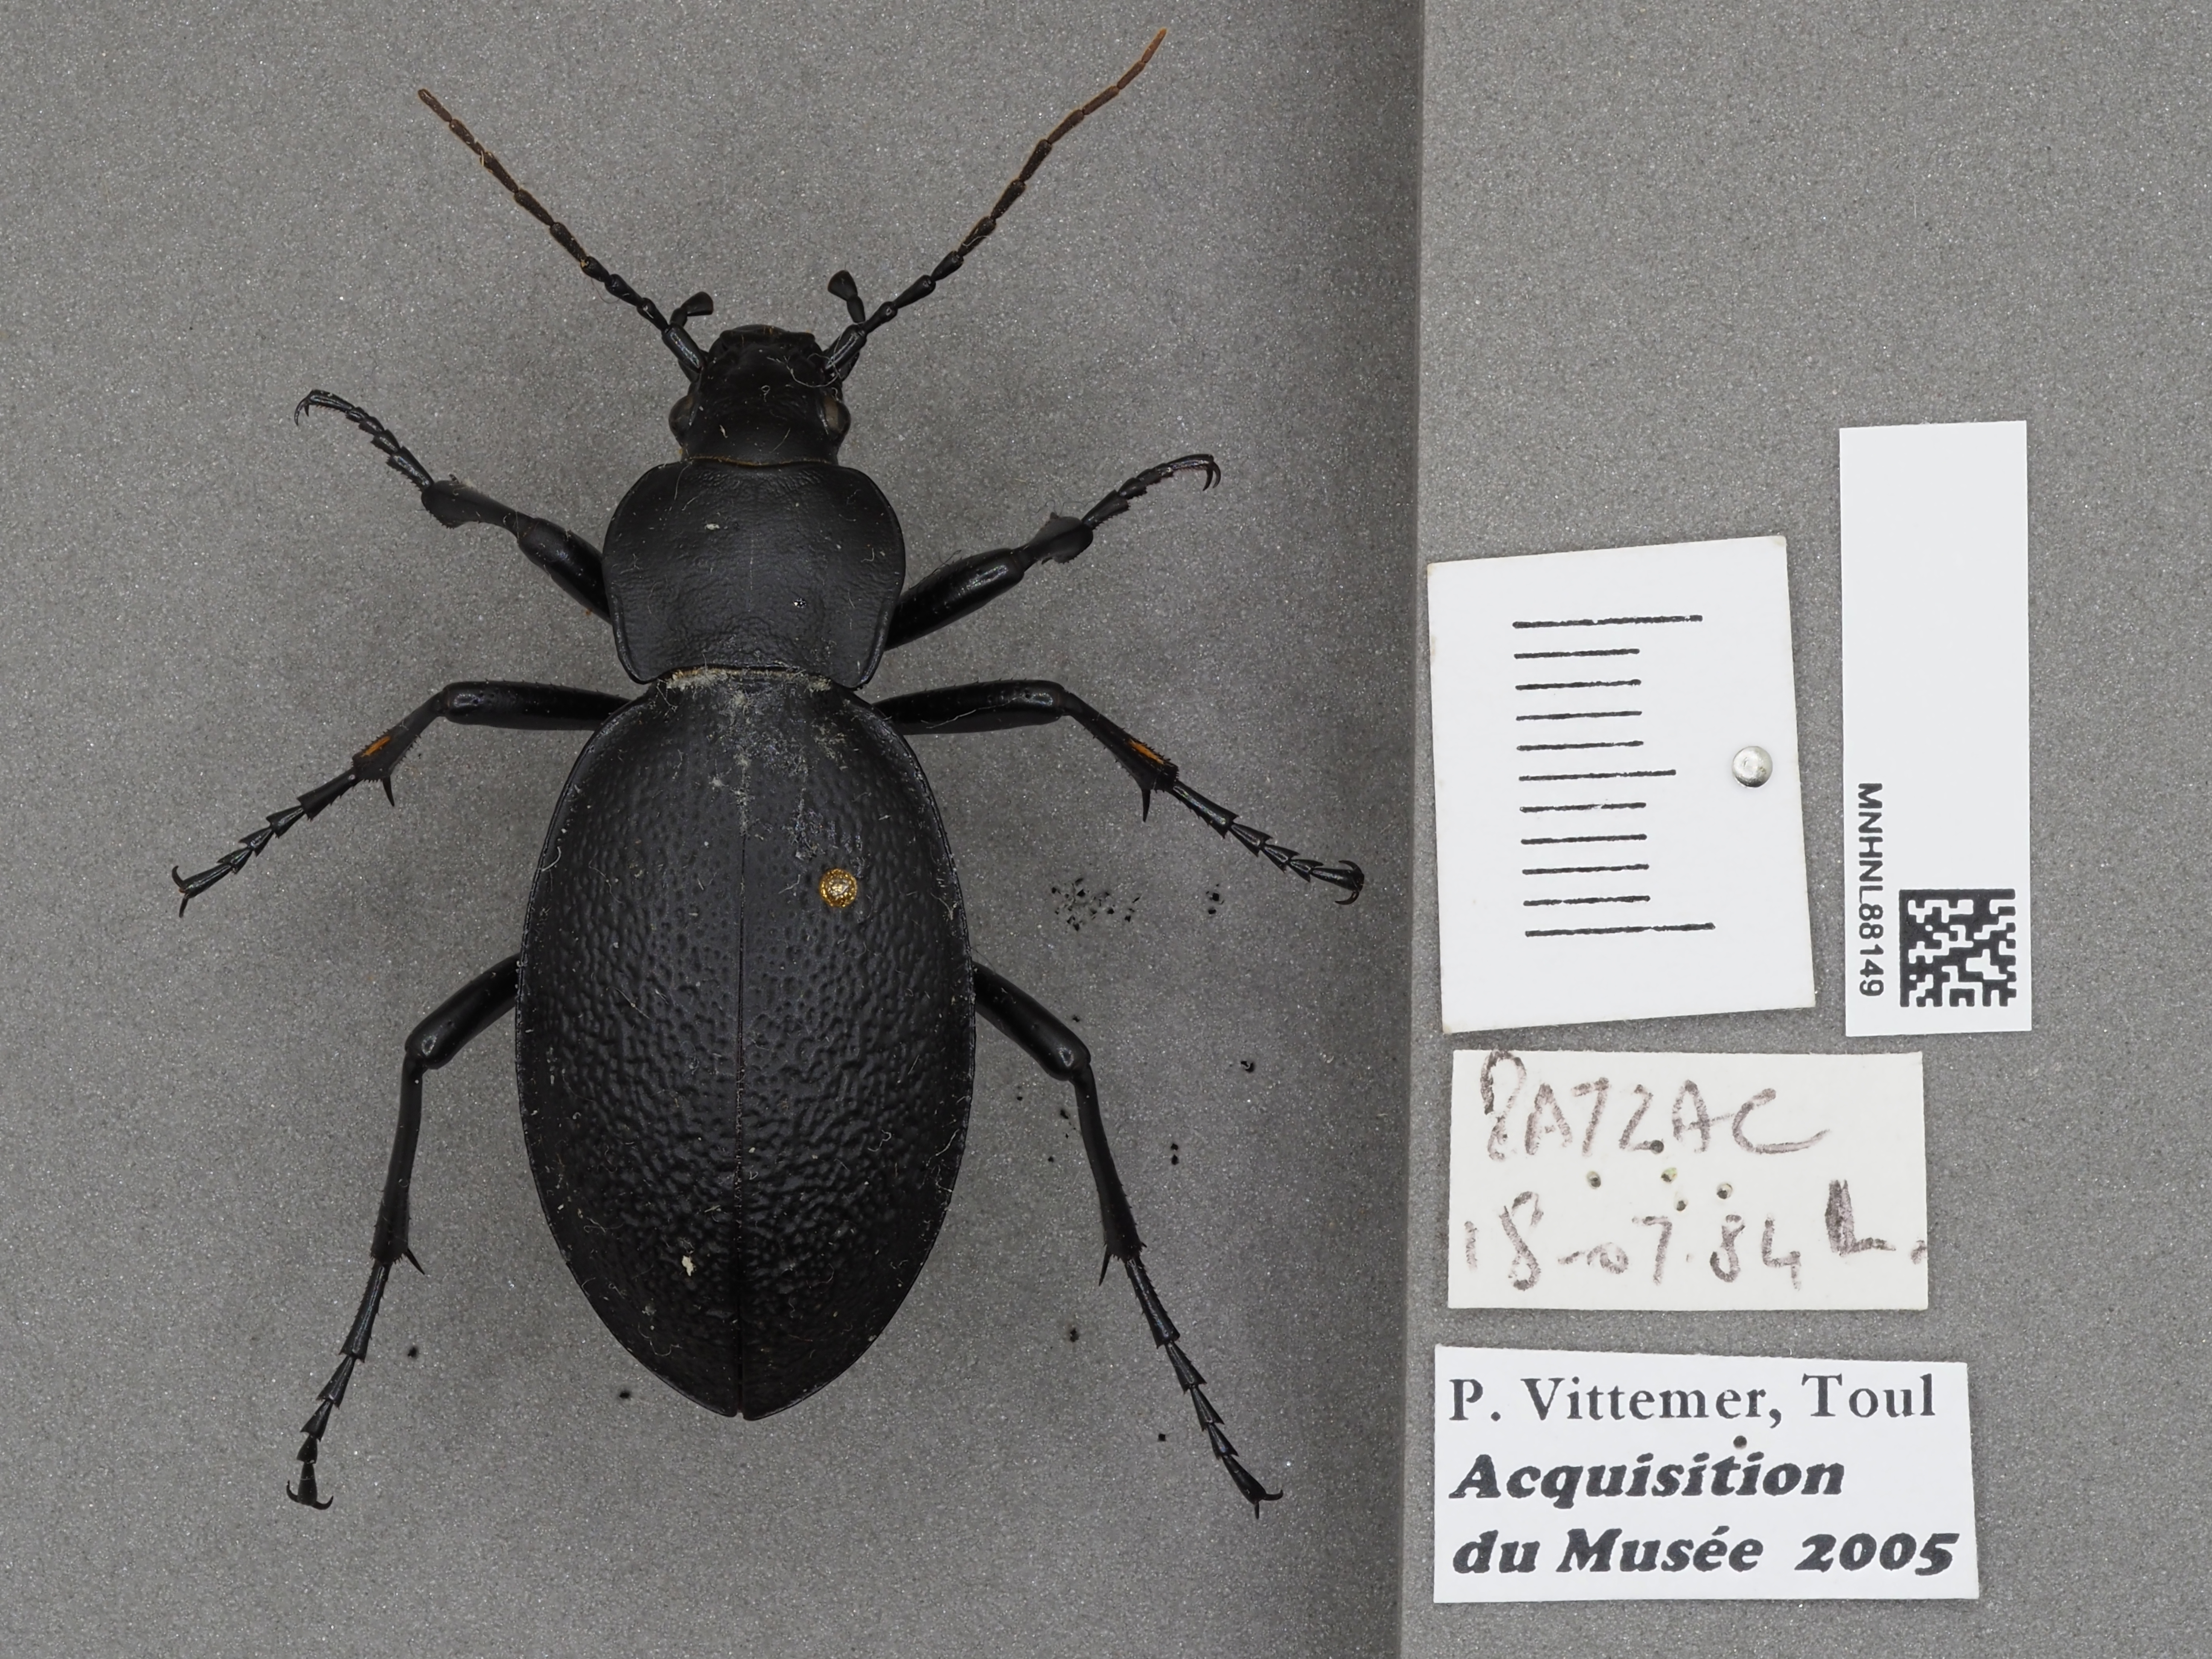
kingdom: Animalia
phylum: Arthropoda
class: Insecta
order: Coleoptera
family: Carabidae
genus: Carabus
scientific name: Carabus coriaceus
